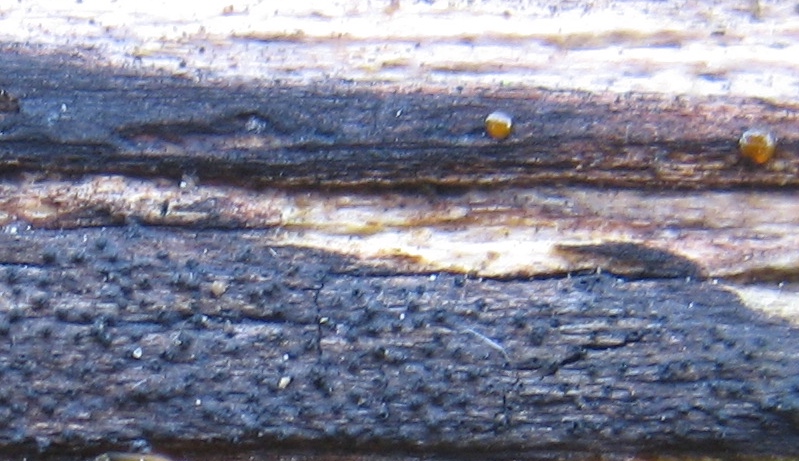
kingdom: Fungi
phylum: Ascomycota
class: Sordariomycetes
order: Xylariales
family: Diatrypaceae
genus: Eutypa
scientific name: Eutypa
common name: kulskorpe
